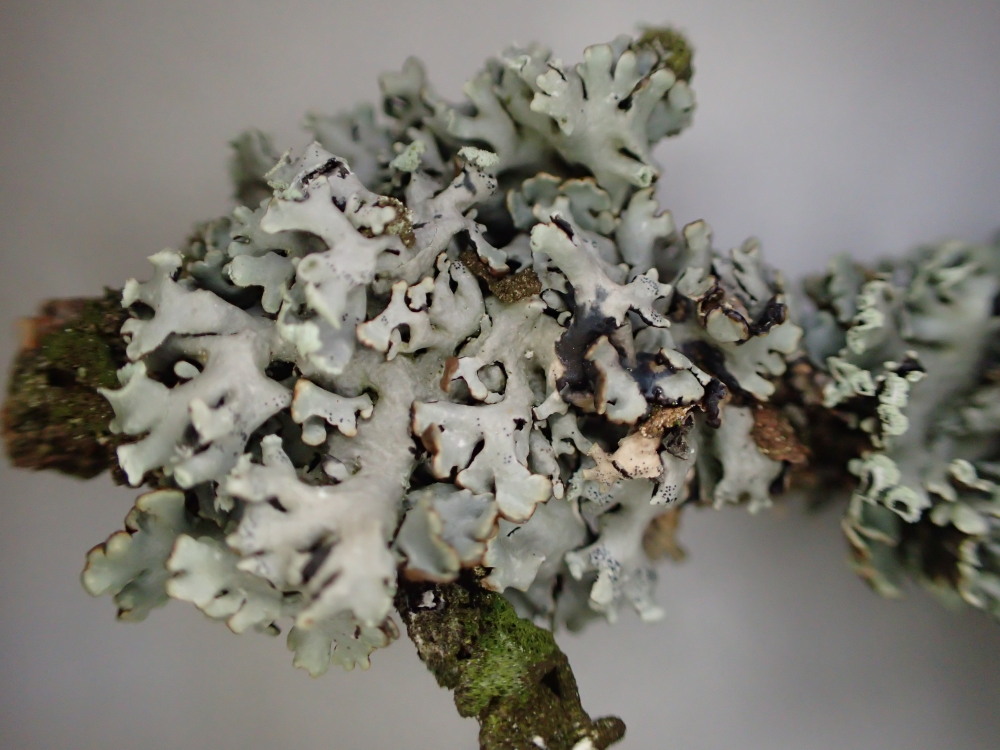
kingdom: Fungi
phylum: Ascomycota
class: Lecanoromycetes
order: Lecanorales
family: Parmeliaceae
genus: Hypogymnia
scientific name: Hypogymnia physodes
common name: almindelig kvistlav
